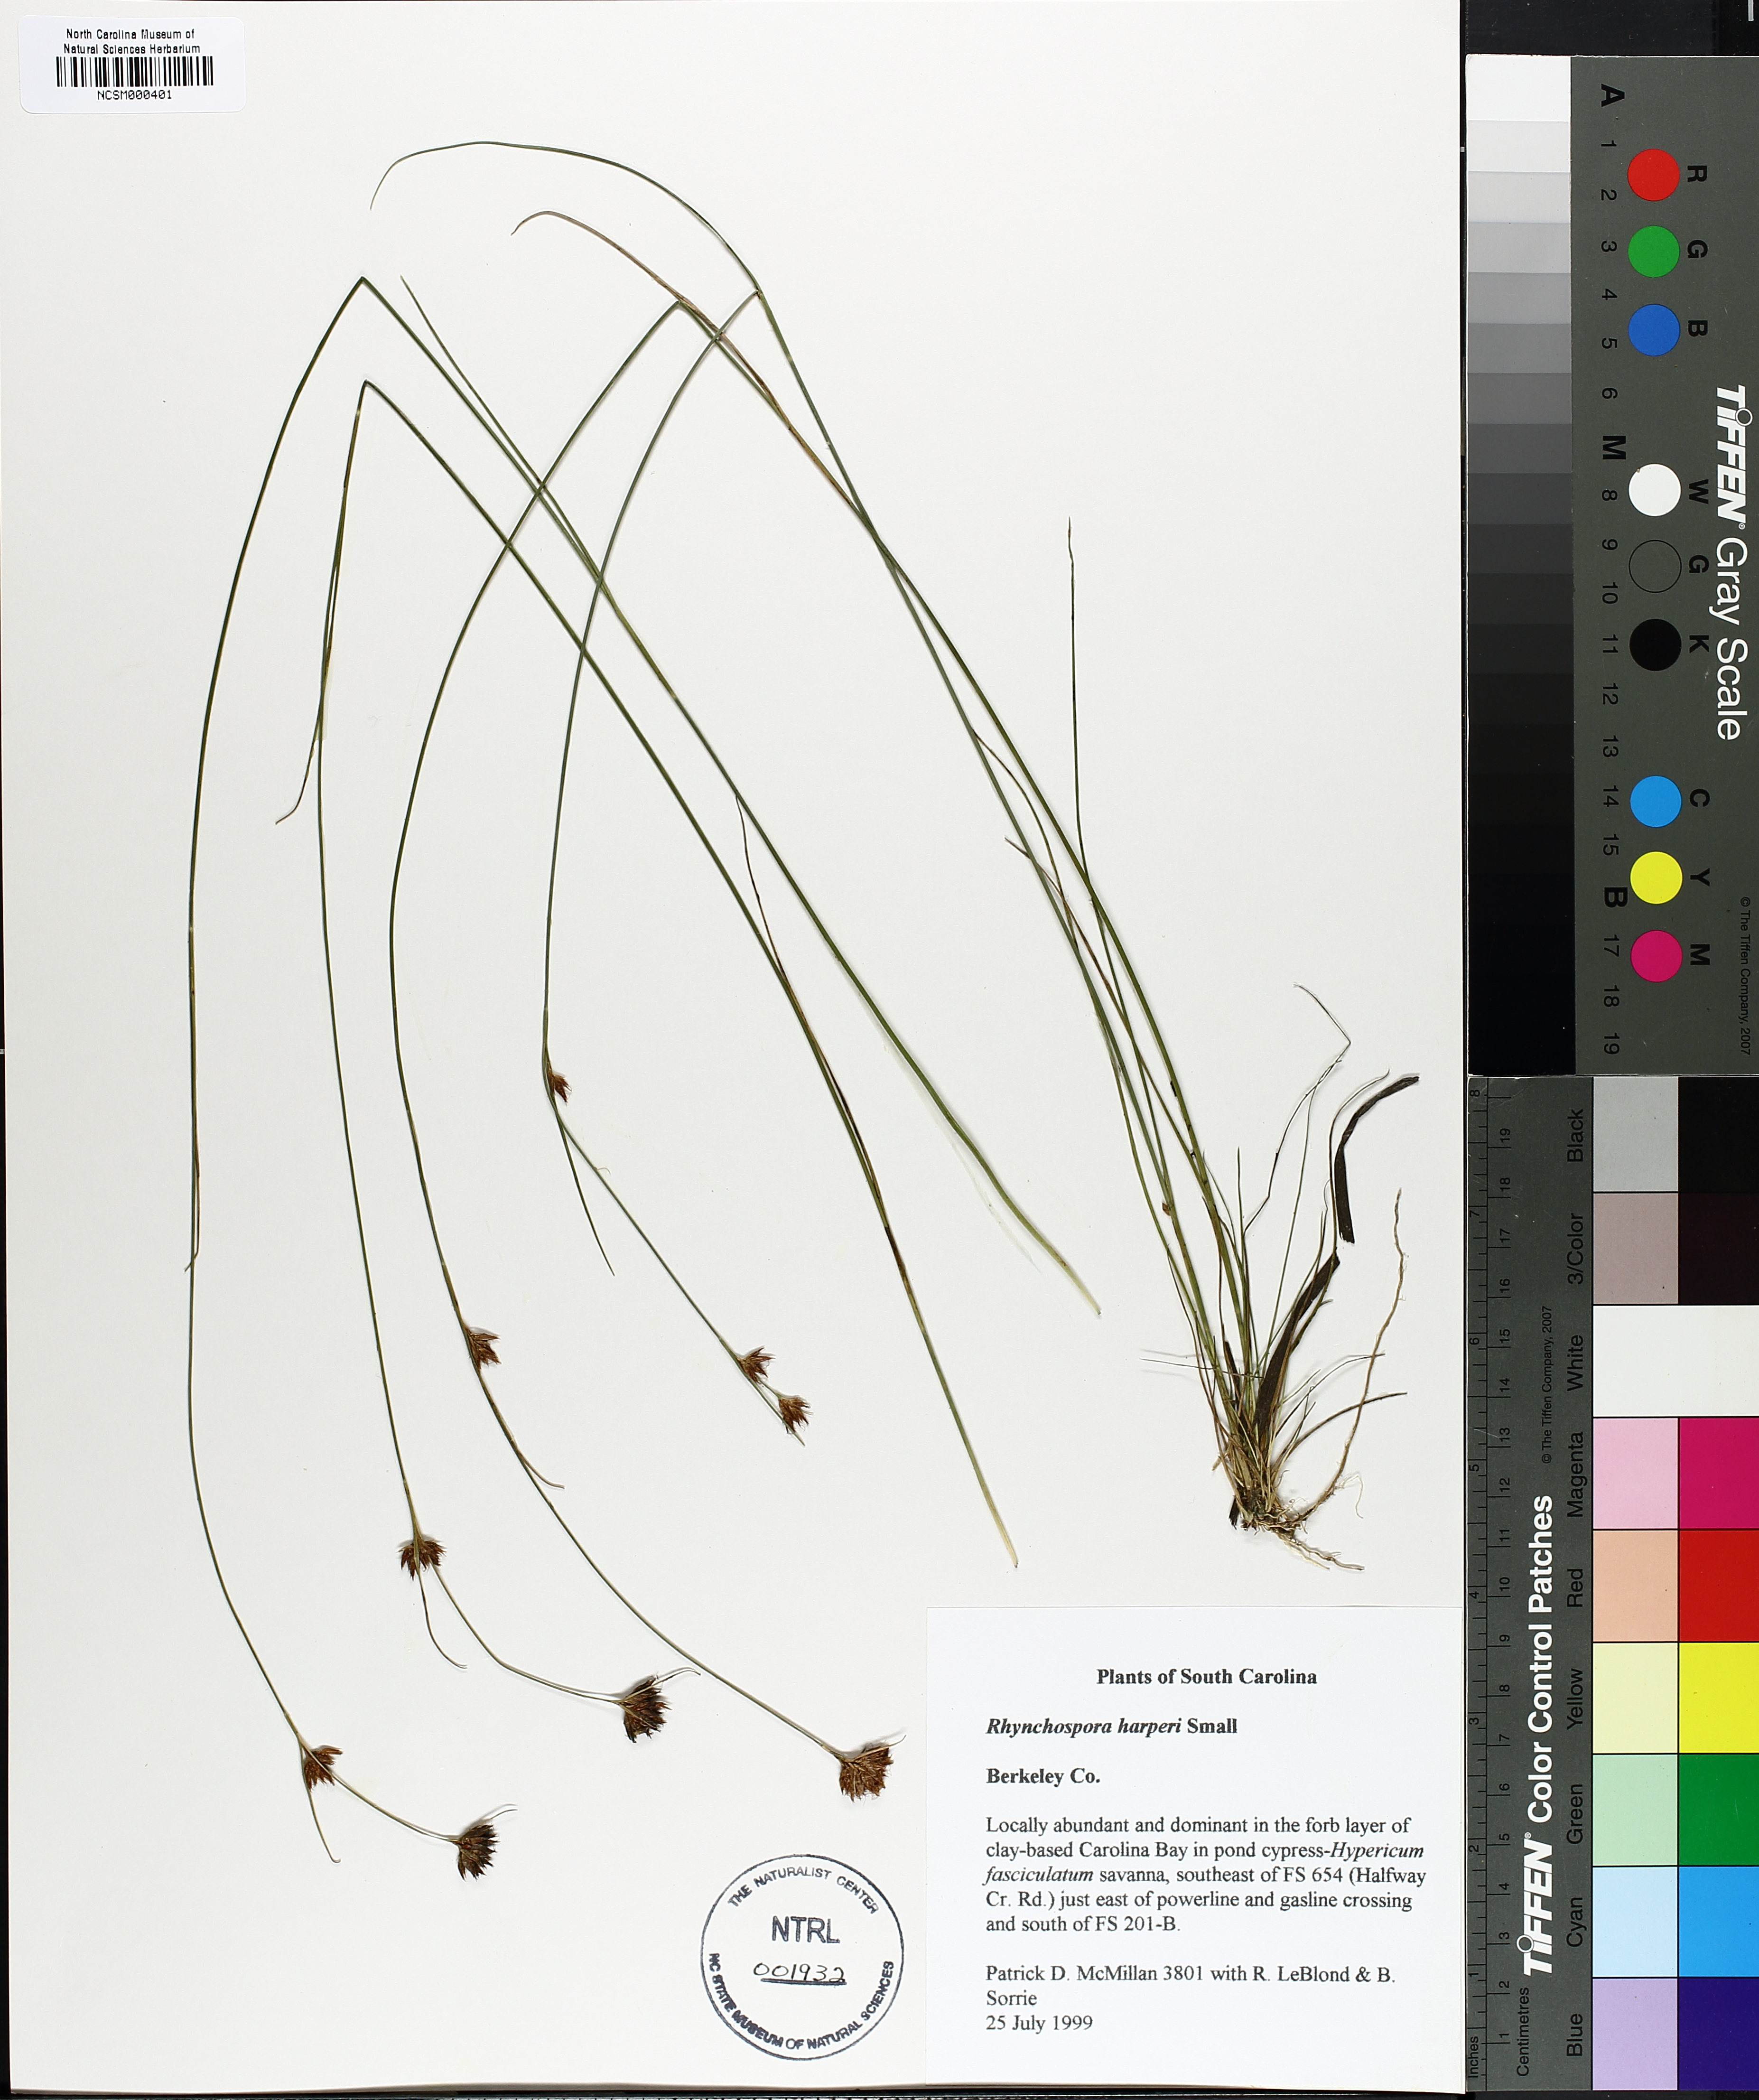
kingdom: Plantae
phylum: Tracheophyta
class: Liliopsida
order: Poales
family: Cyperaceae
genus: Rhynchospora
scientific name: Rhynchospora harperi
